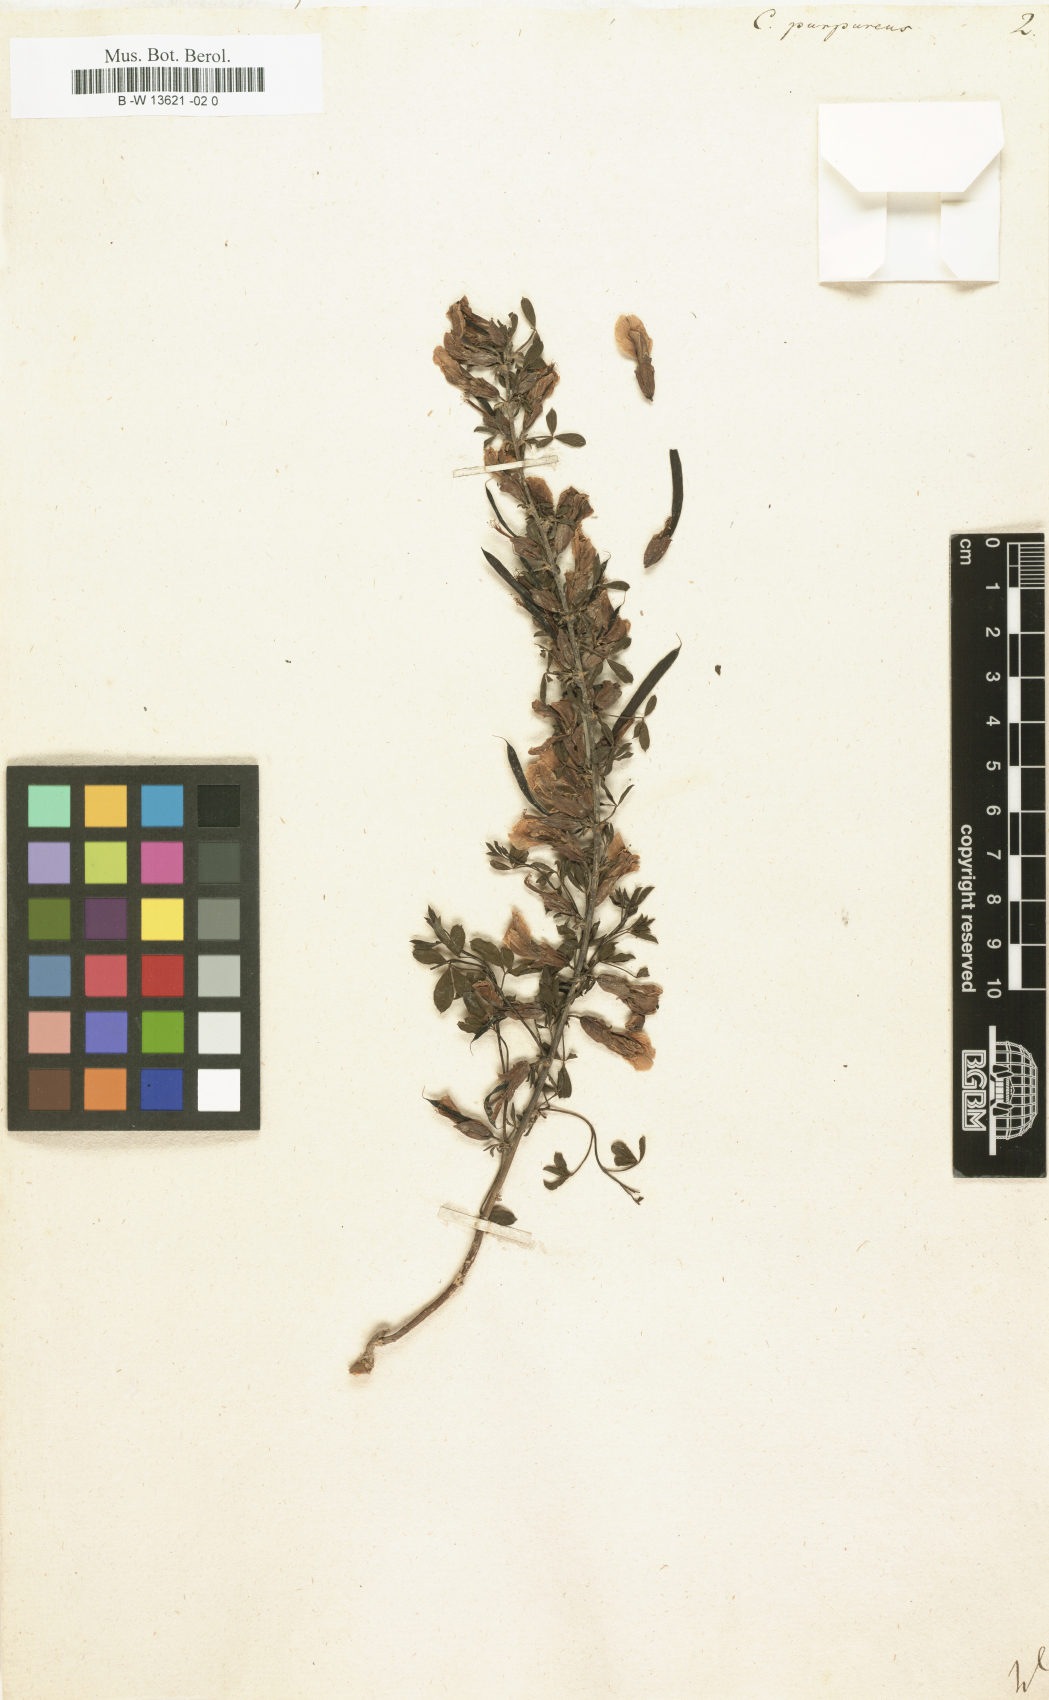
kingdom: Plantae
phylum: Tracheophyta
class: Magnoliopsida
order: Fabales
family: Fabaceae
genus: Chamaecytisus
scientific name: Chamaecytisus purpureus
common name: Purple broom
